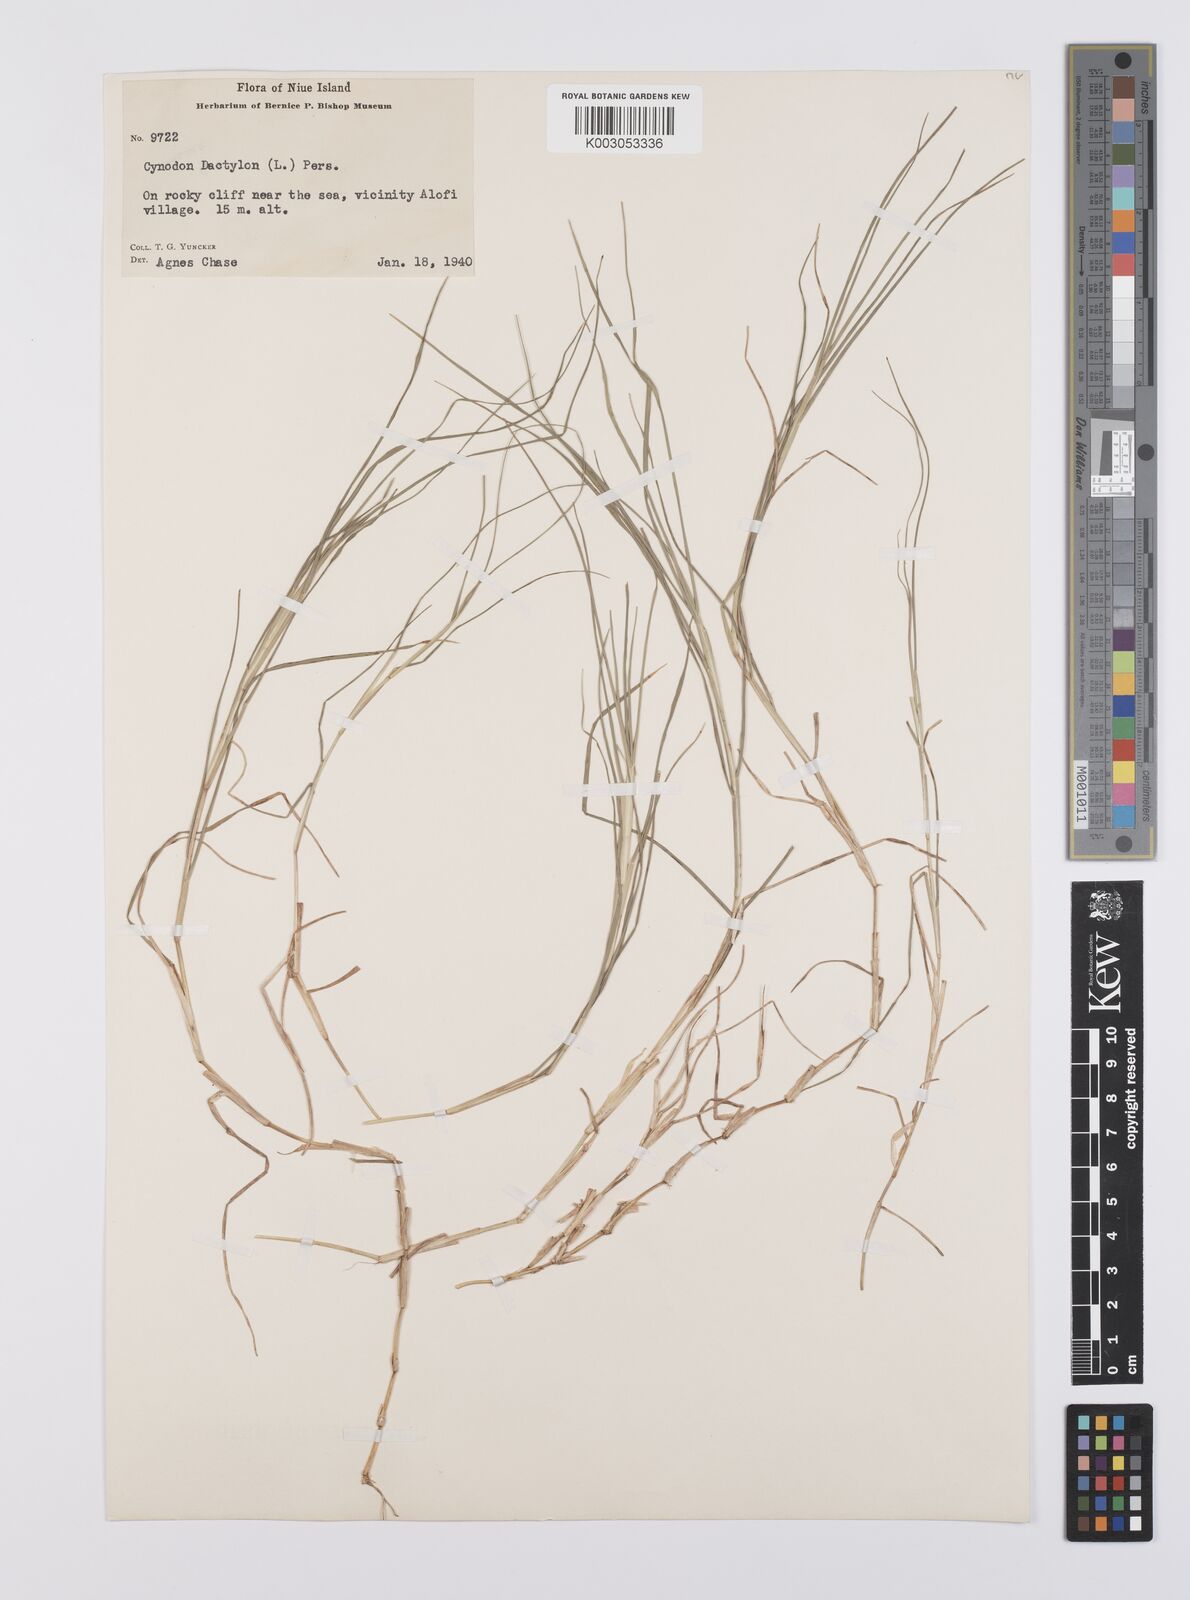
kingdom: Plantae
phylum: Tracheophyta
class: Liliopsida
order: Poales
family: Poaceae
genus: Cynodon
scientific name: Cynodon dactylon
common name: Bermuda grass
